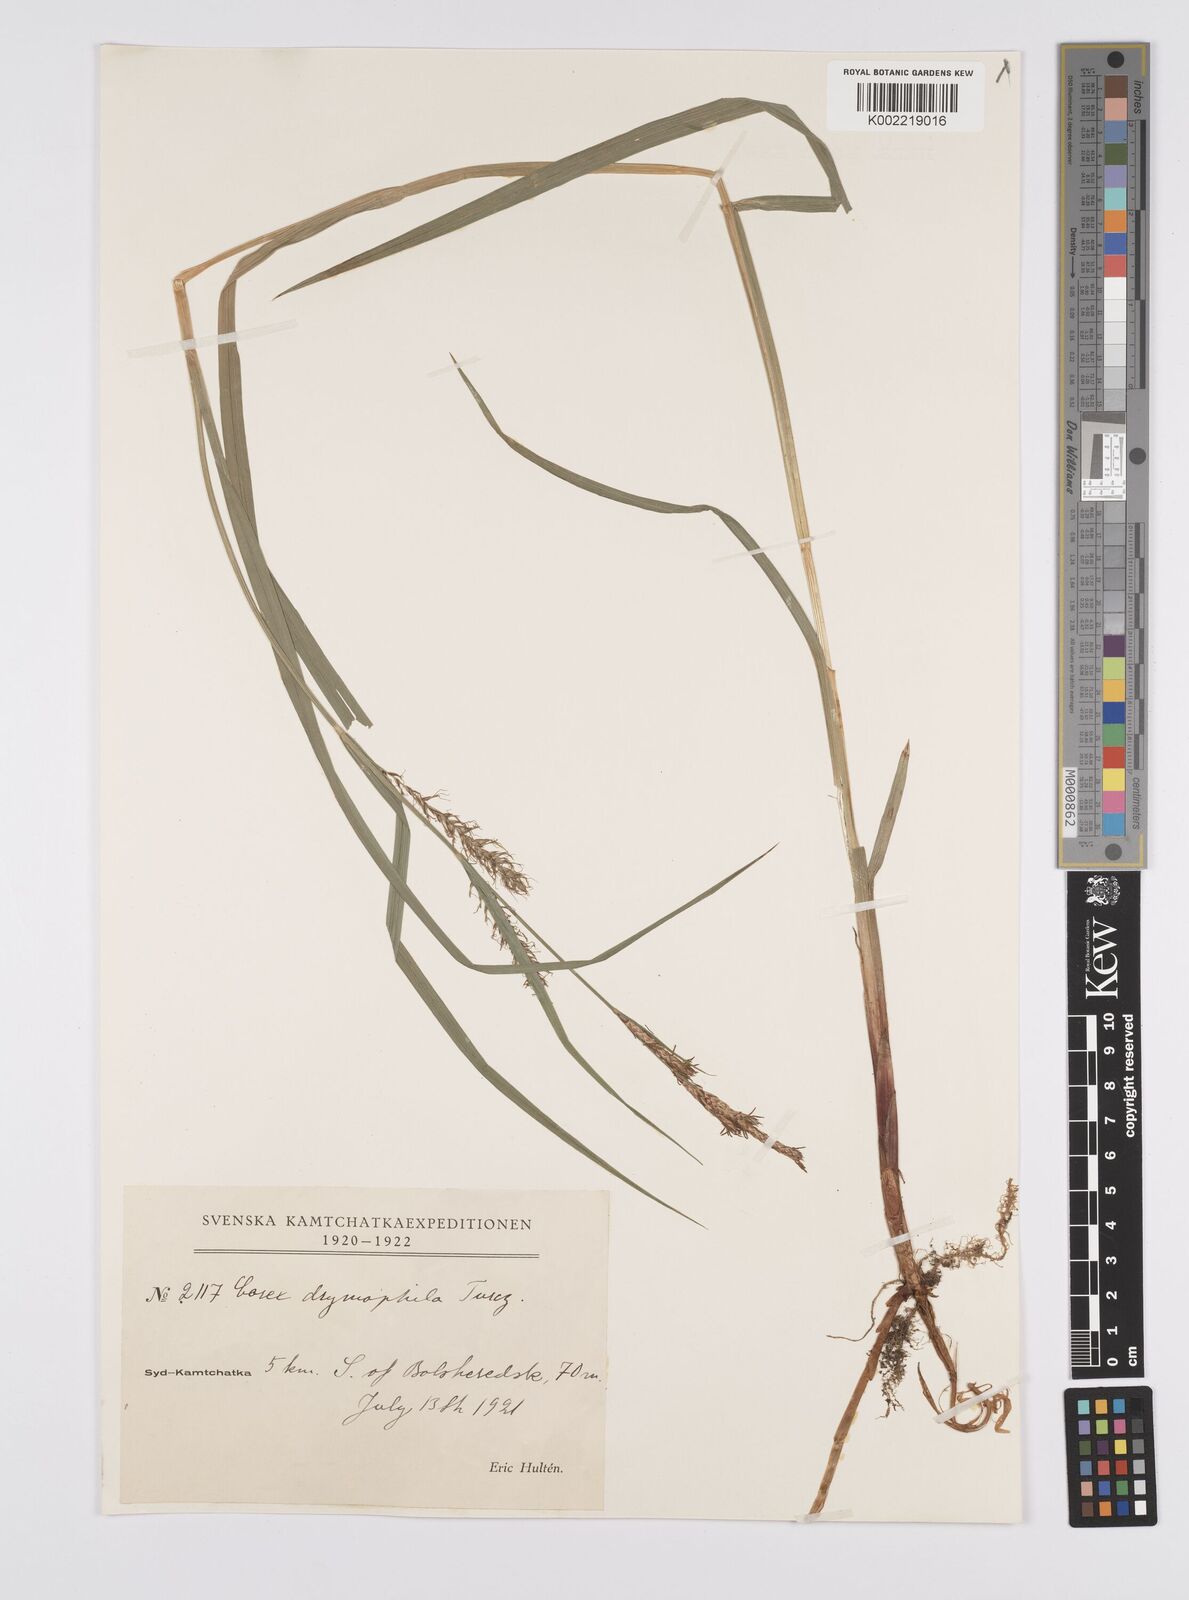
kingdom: Plantae
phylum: Tracheophyta
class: Liliopsida
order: Poales
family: Cyperaceae
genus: Carex
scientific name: Carex drymophila
